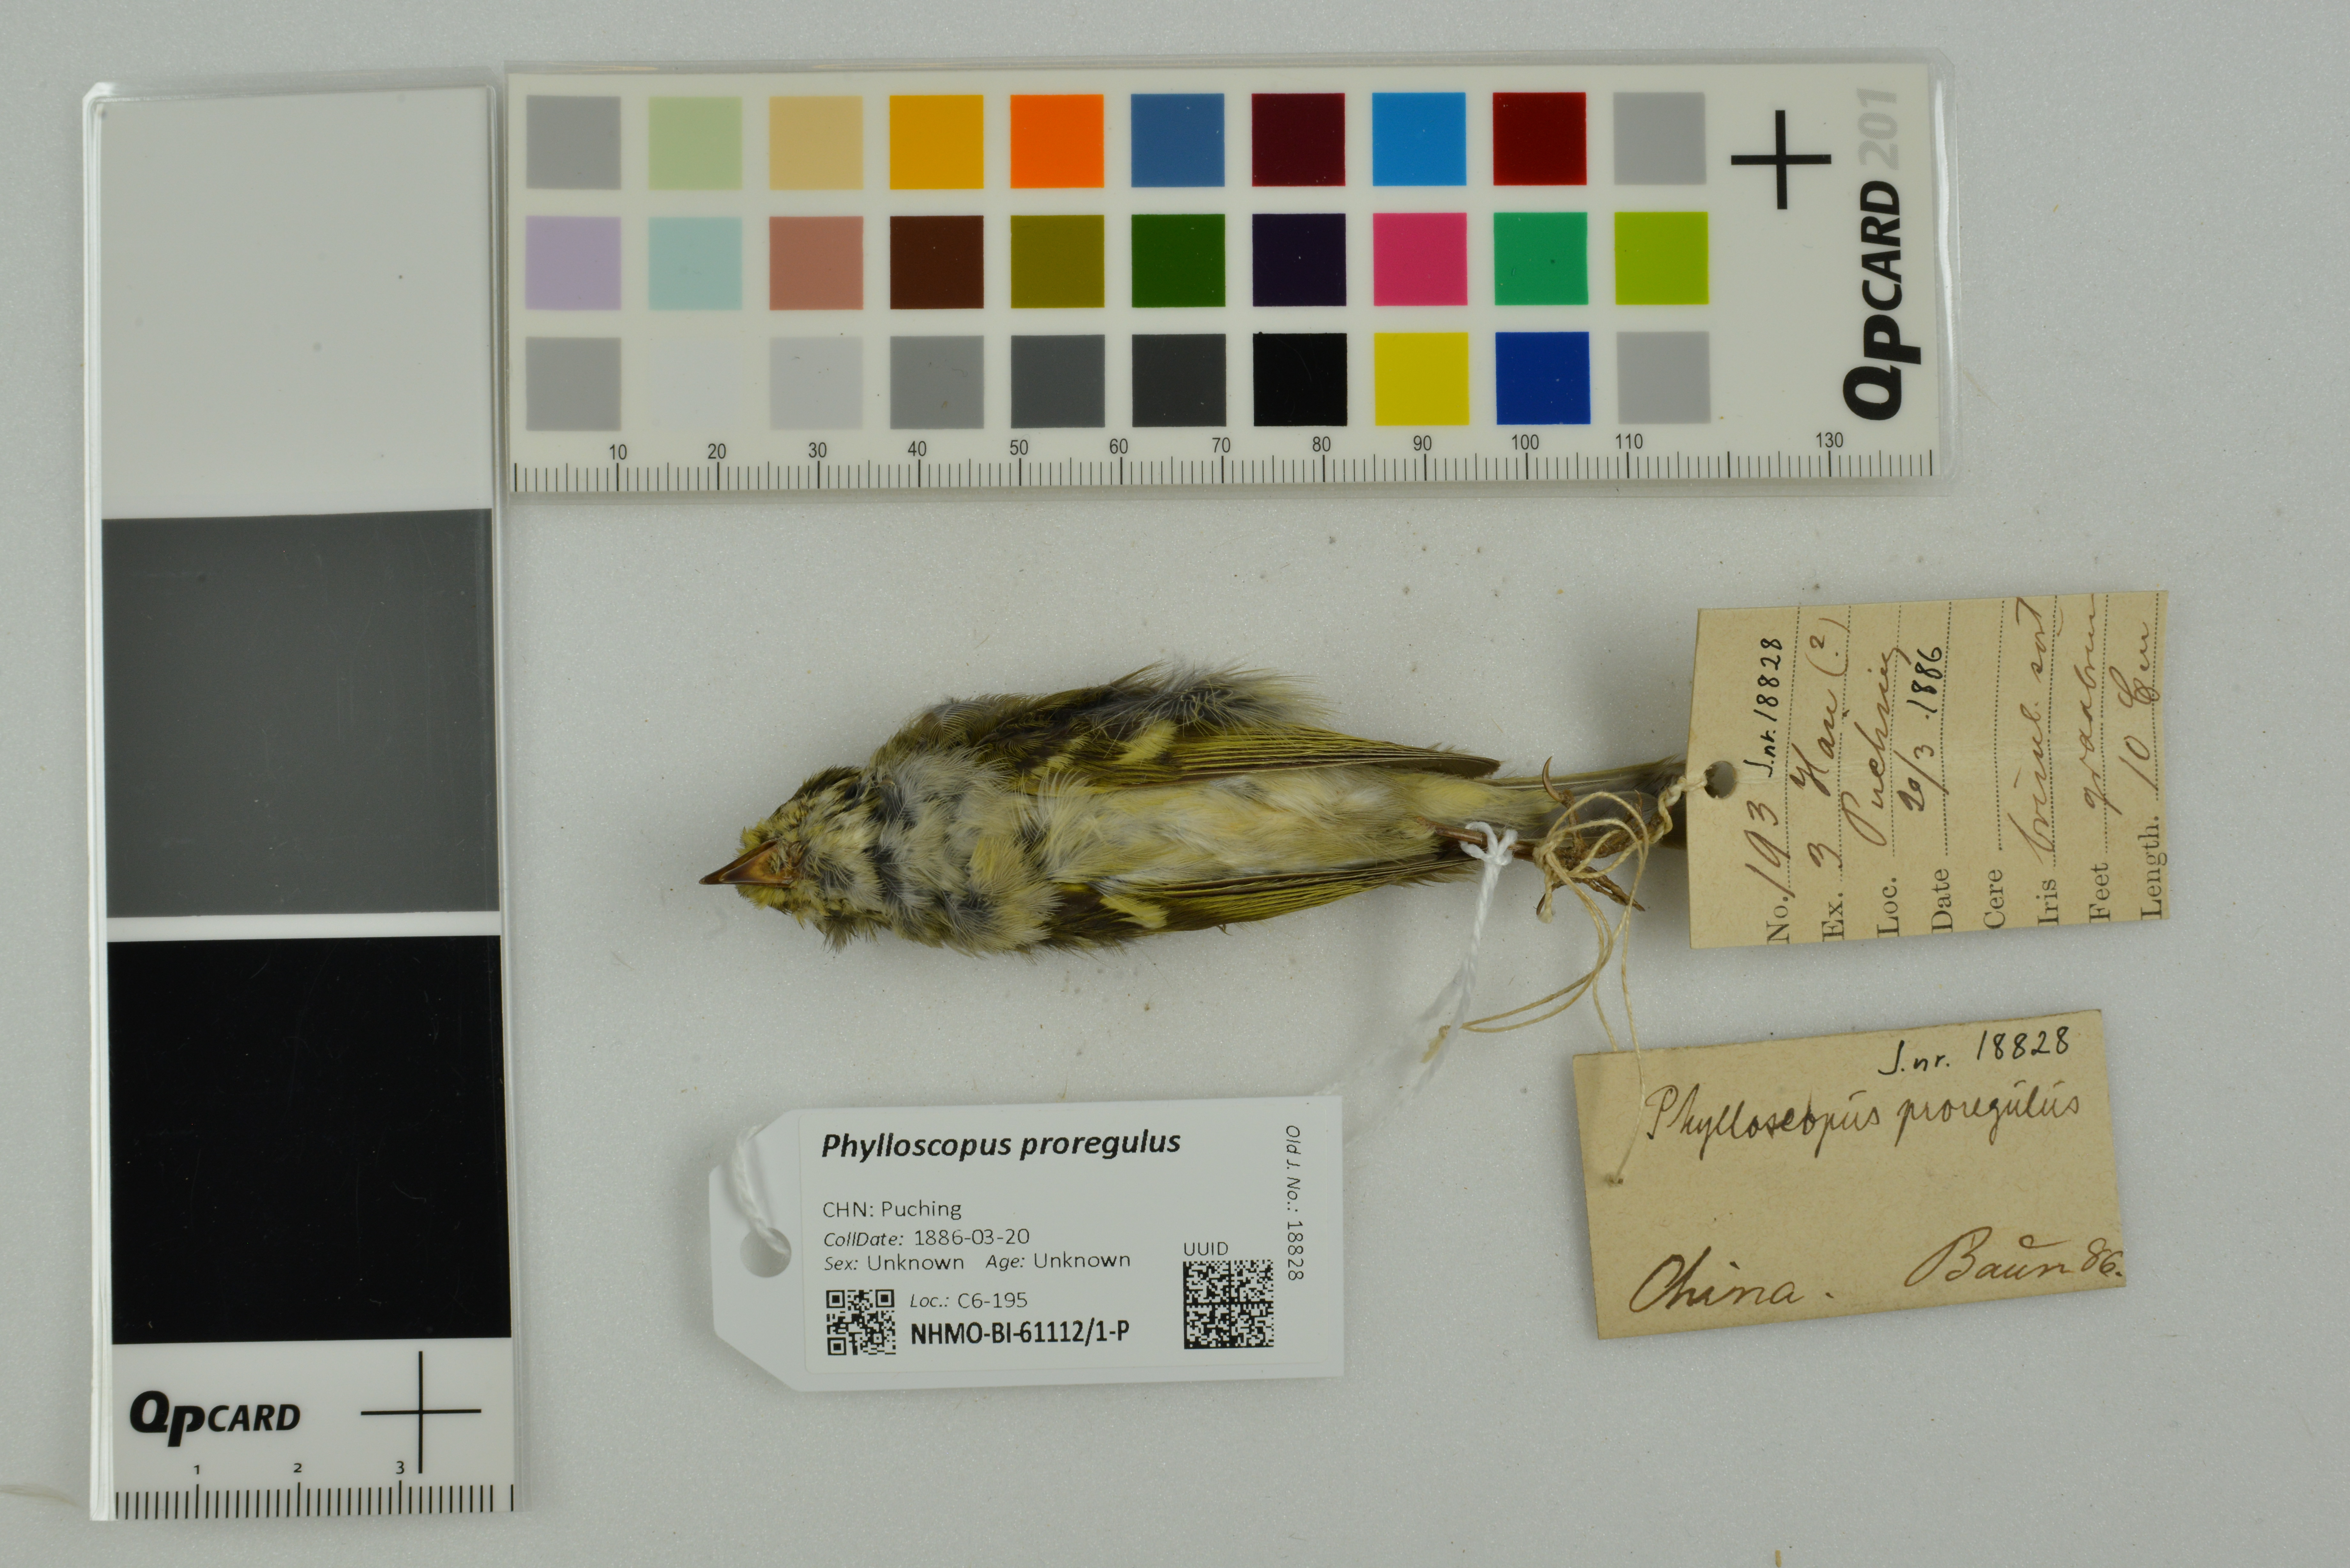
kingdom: Animalia
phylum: Chordata
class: Aves
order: Passeriformes
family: Phylloscopidae
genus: Phylloscopus
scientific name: Phylloscopus proregulus
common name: Pallas's leaf warbler
